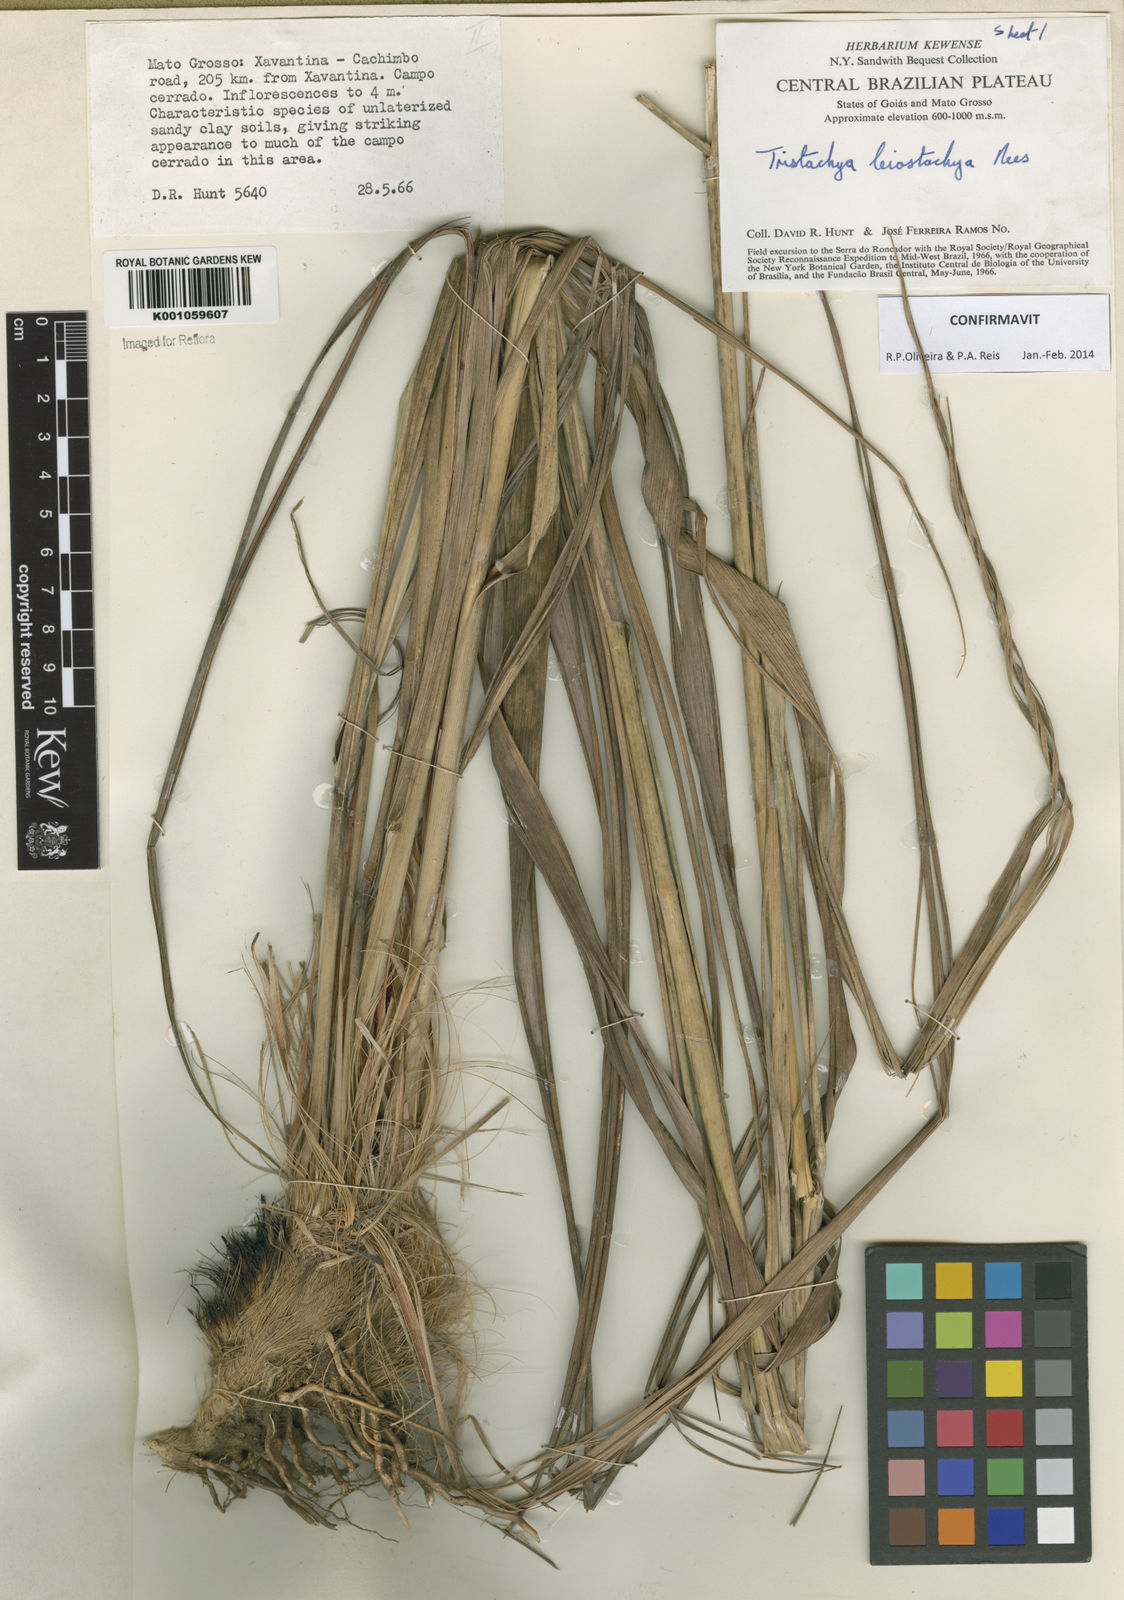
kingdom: Plantae
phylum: Tracheophyta
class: Liliopsida
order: Poales
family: Poaceae
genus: Tristachya
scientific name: Tristachya leiostachya
